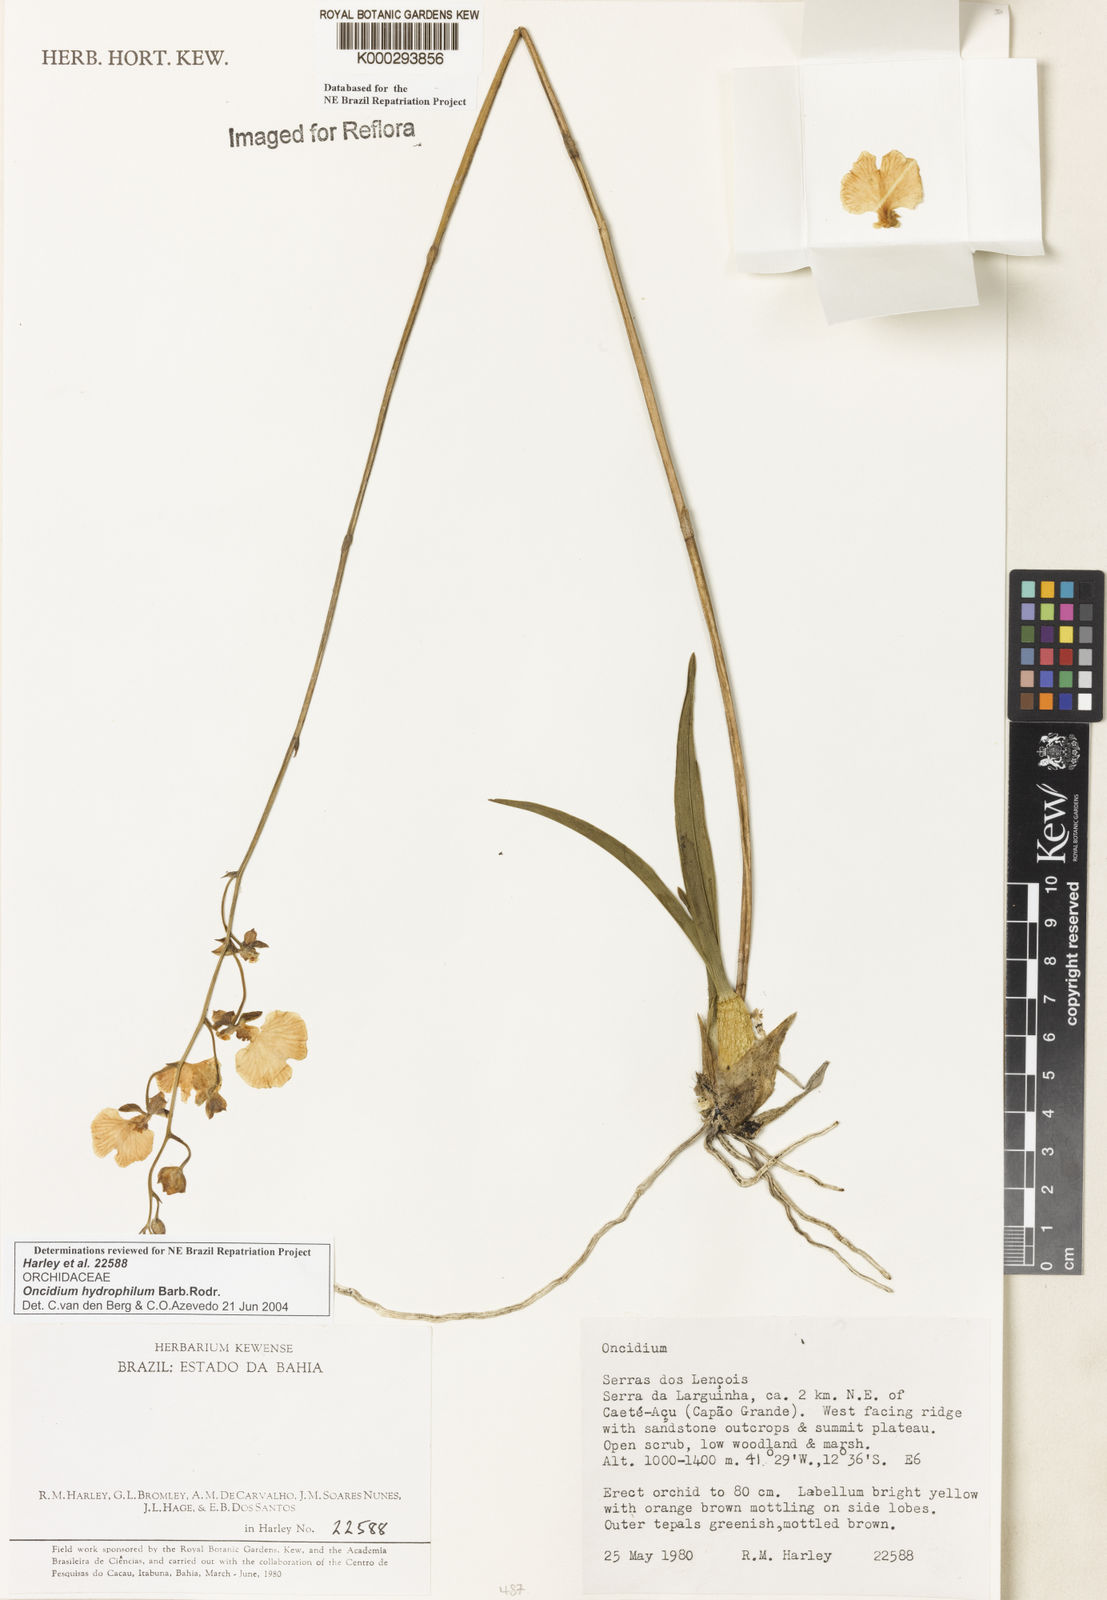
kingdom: Plantae
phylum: Tracheophyta
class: Liliopsida
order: Asparagales
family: Orchidaceae
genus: Gomesa
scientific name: Gomesa sincorana
